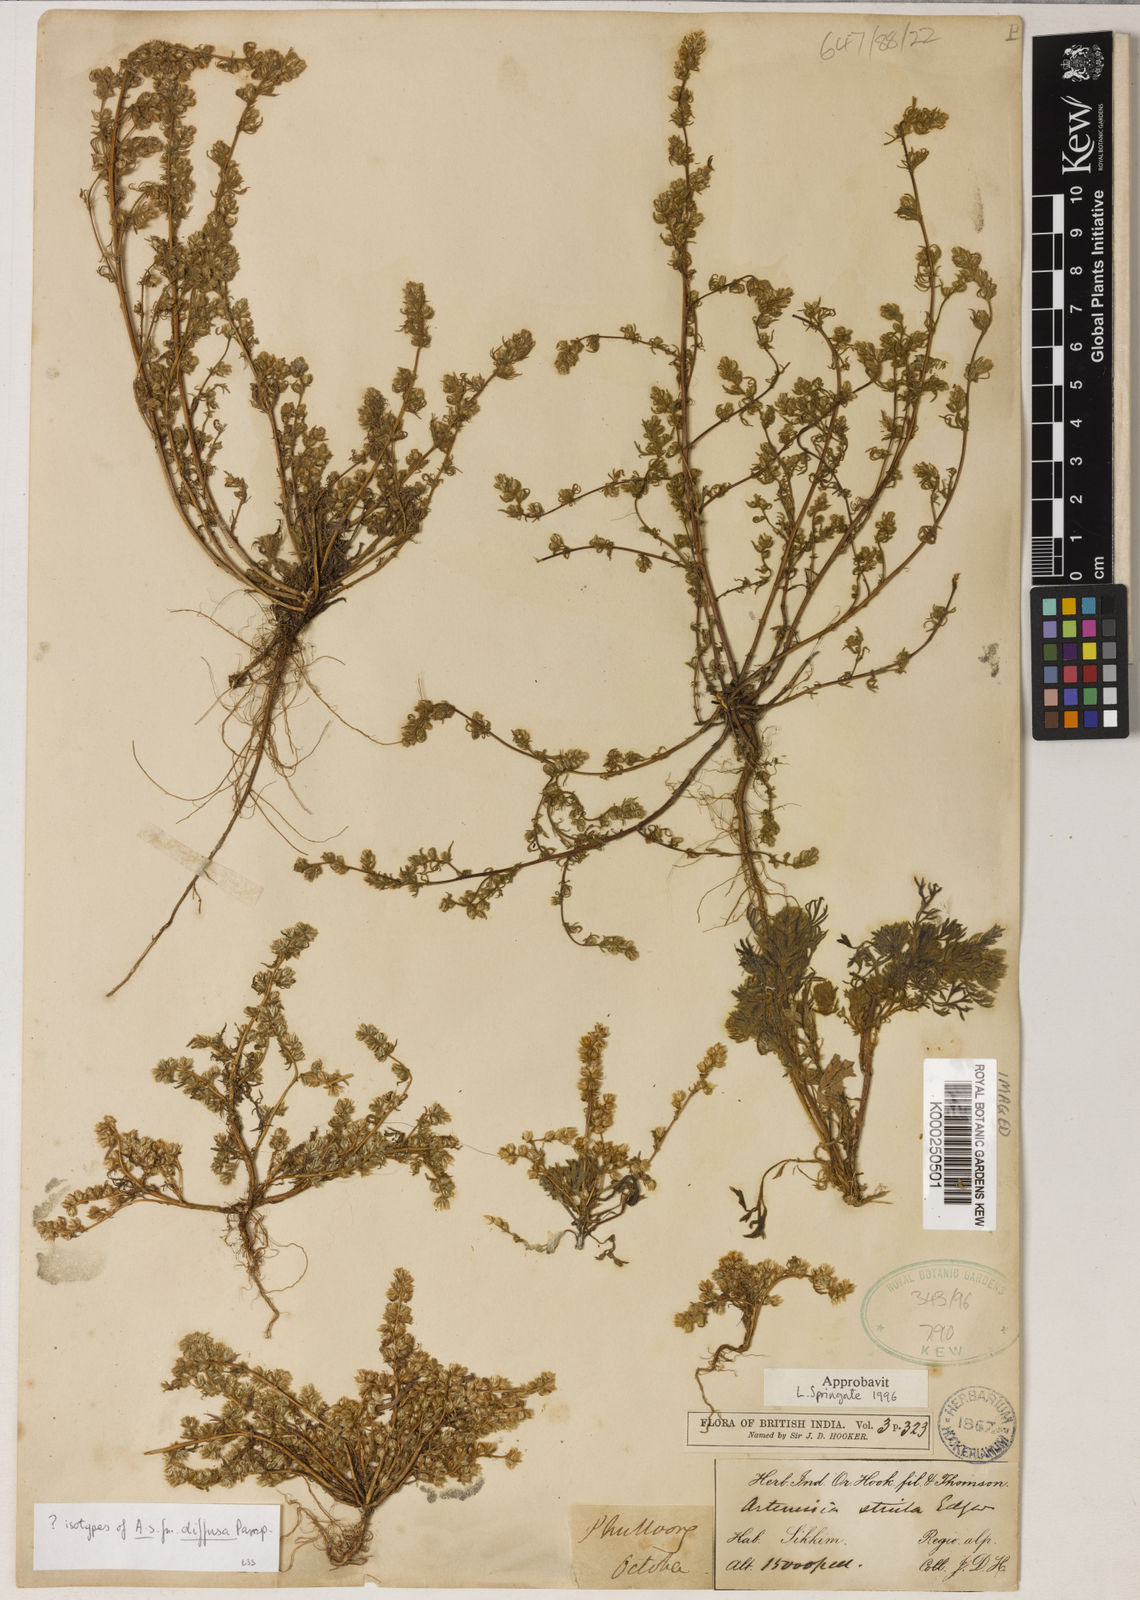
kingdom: Plantae
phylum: Tracheophyta
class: Magnoliopsida
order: Asterales
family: Asteraceae
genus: Artemisia
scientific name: Artemisia stricta
